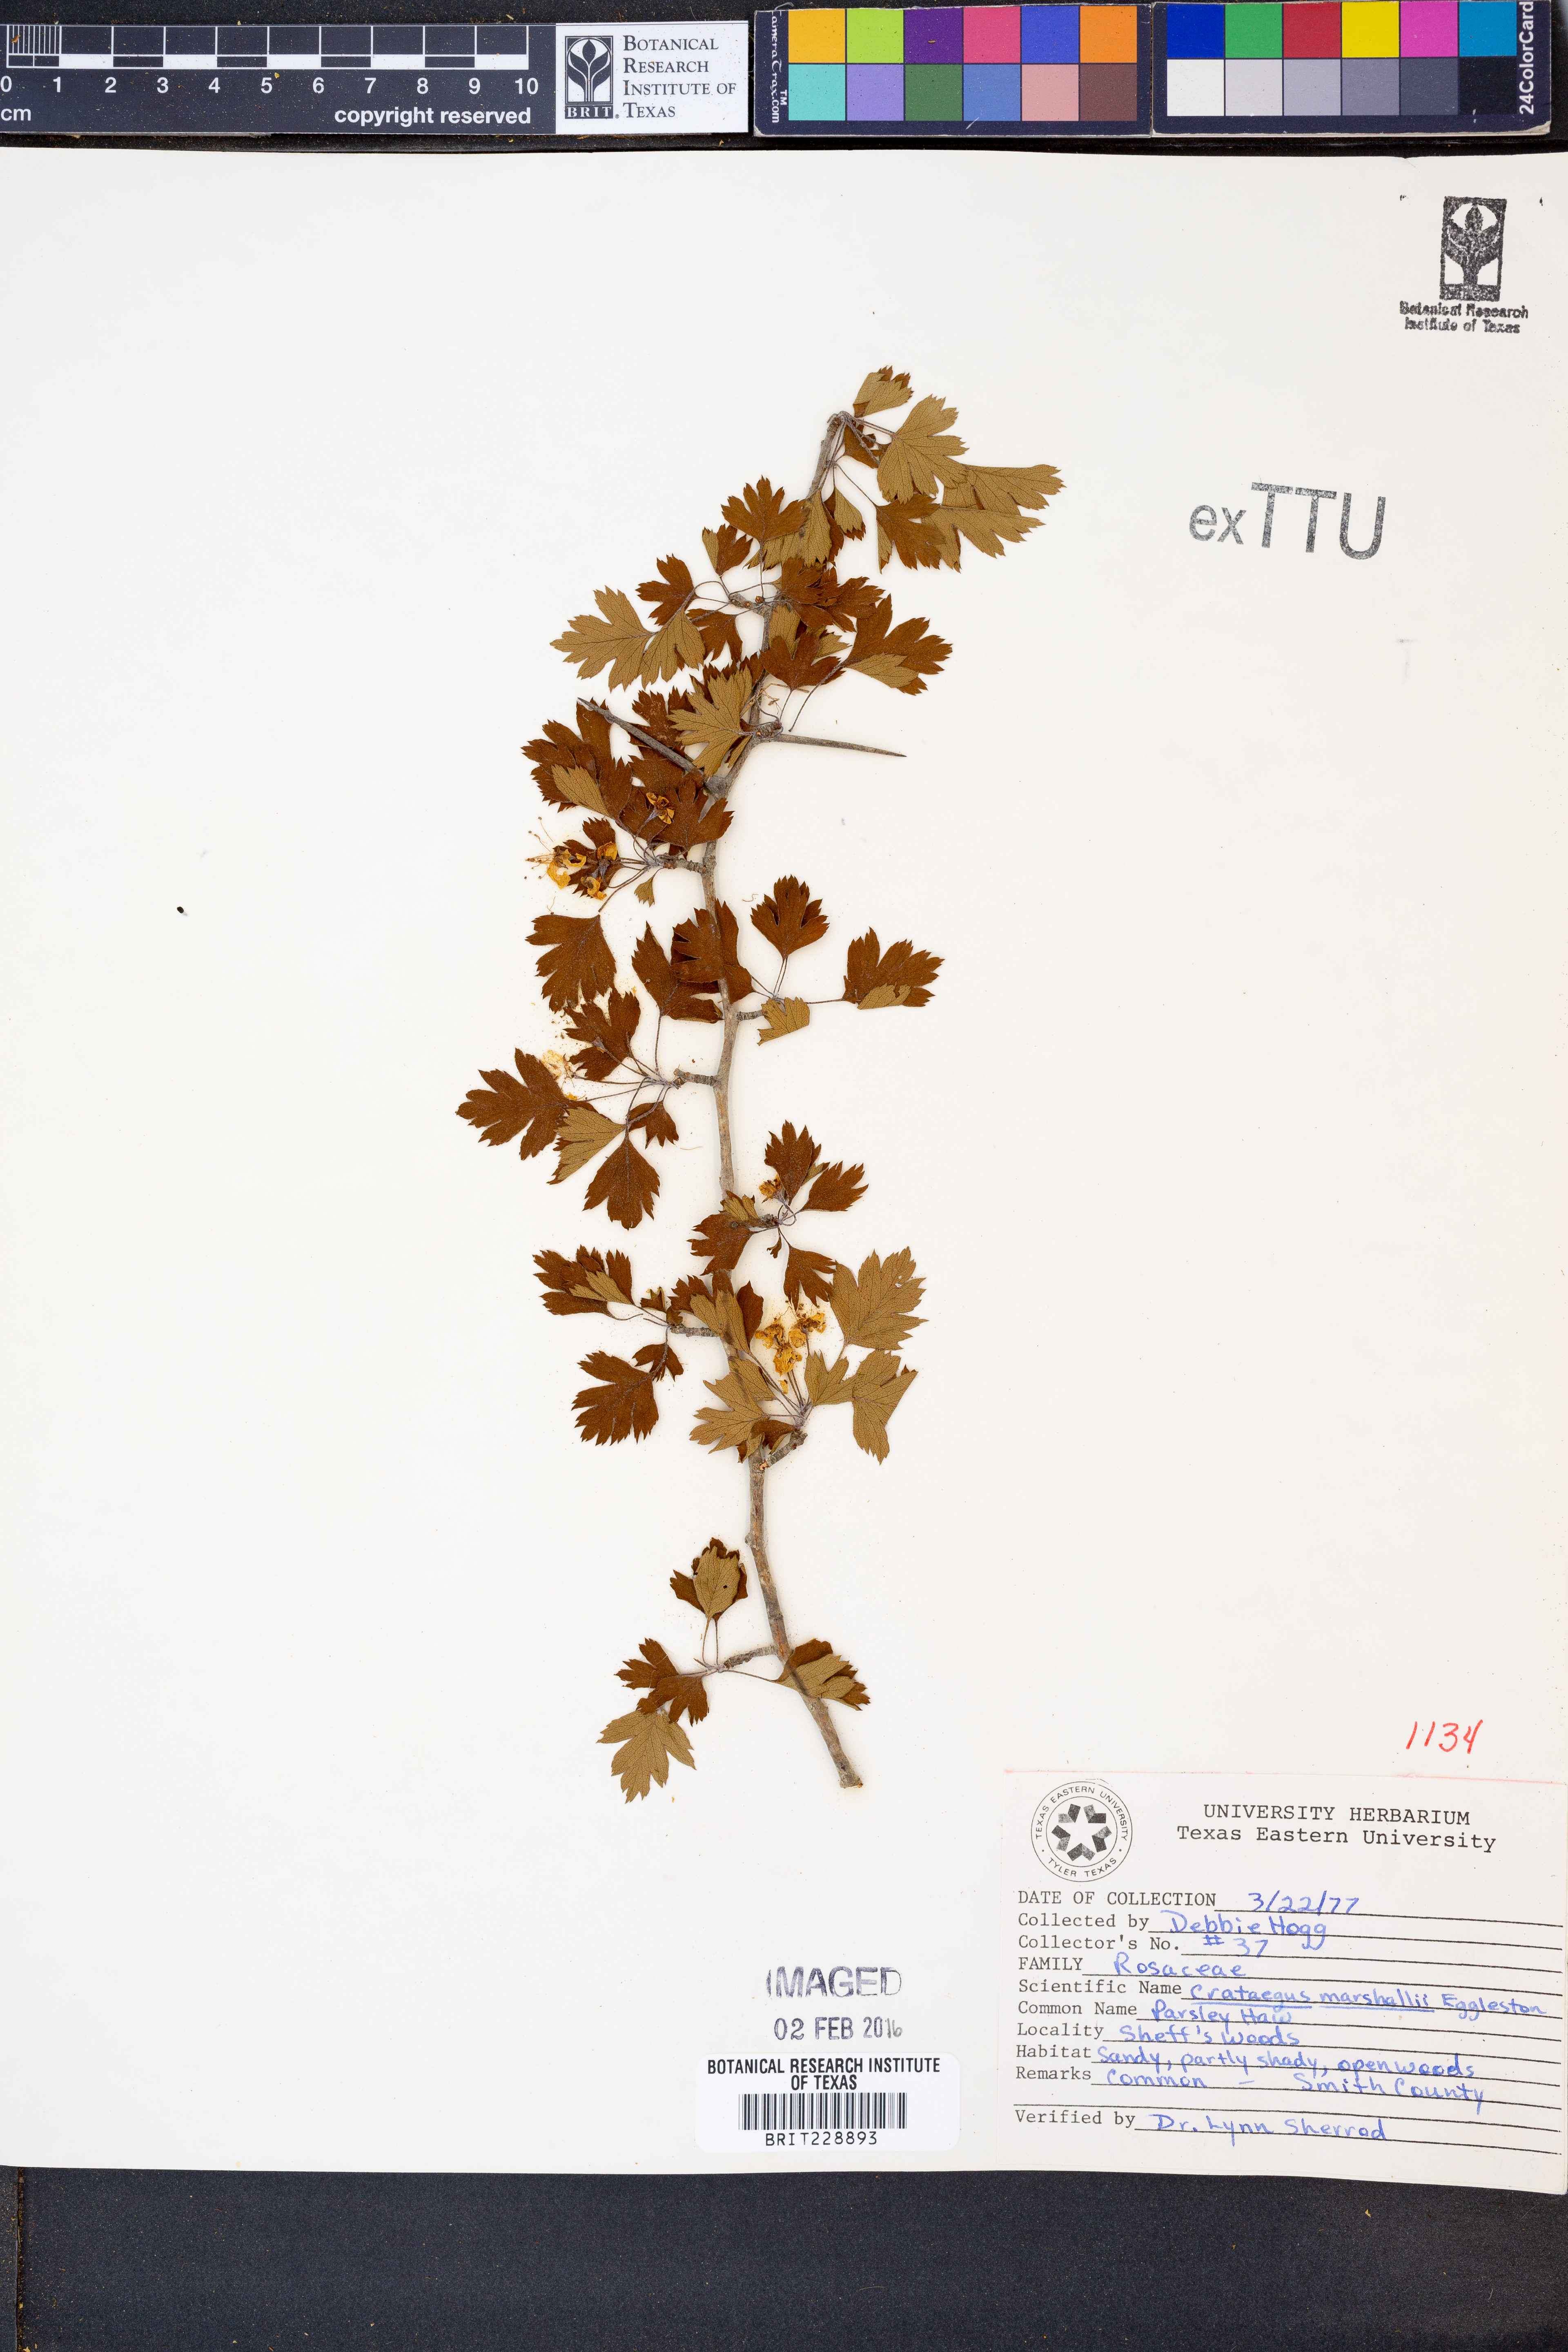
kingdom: Plantae
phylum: Tracheophyta
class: Magnoliopsida
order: Rosales
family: Rosaceae
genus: Crataegus
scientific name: Crataegus marshallii
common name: Parsley-hawthorn
